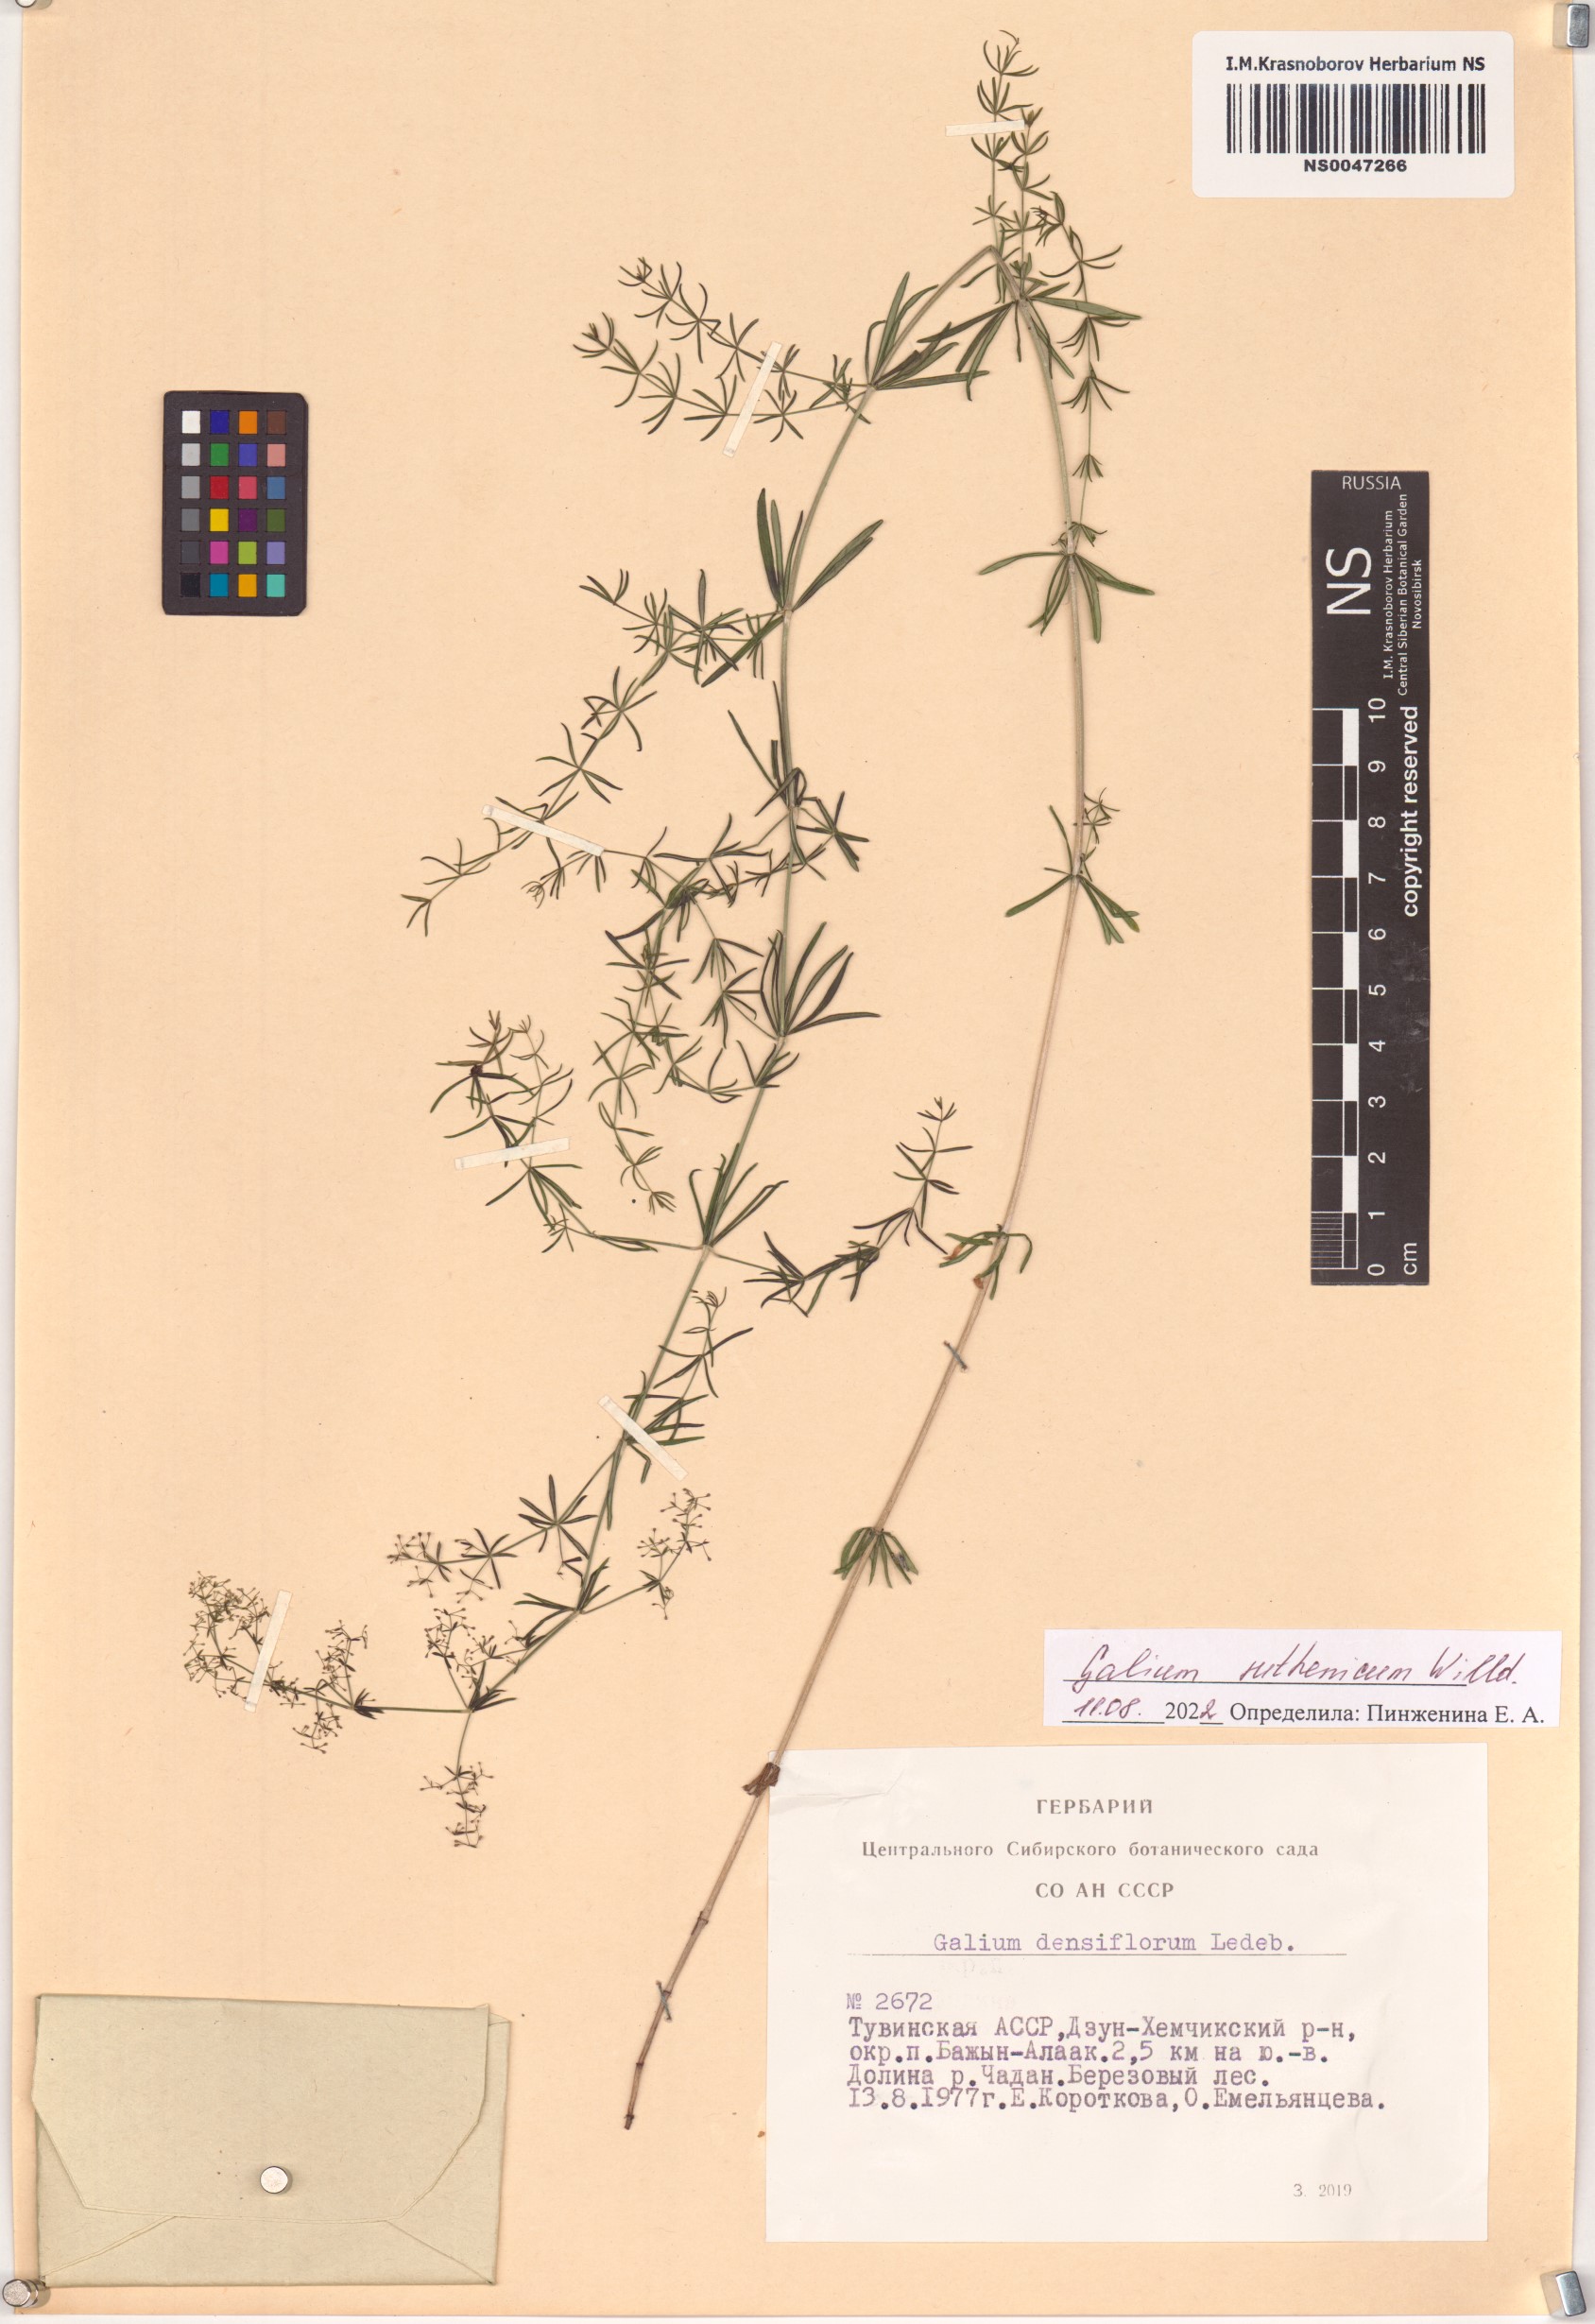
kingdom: Plantae
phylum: Tracheophyta
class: Magnoliopsida
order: Gentianales
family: Rubiaceae
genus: Galium
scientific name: Galium verum
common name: Lady's bedstraw
